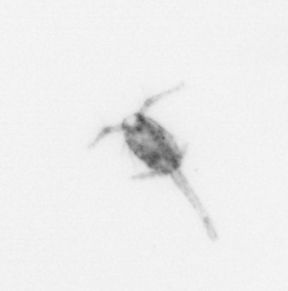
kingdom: Animalia
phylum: Arthropoda
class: Copepoda
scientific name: Copepoda
